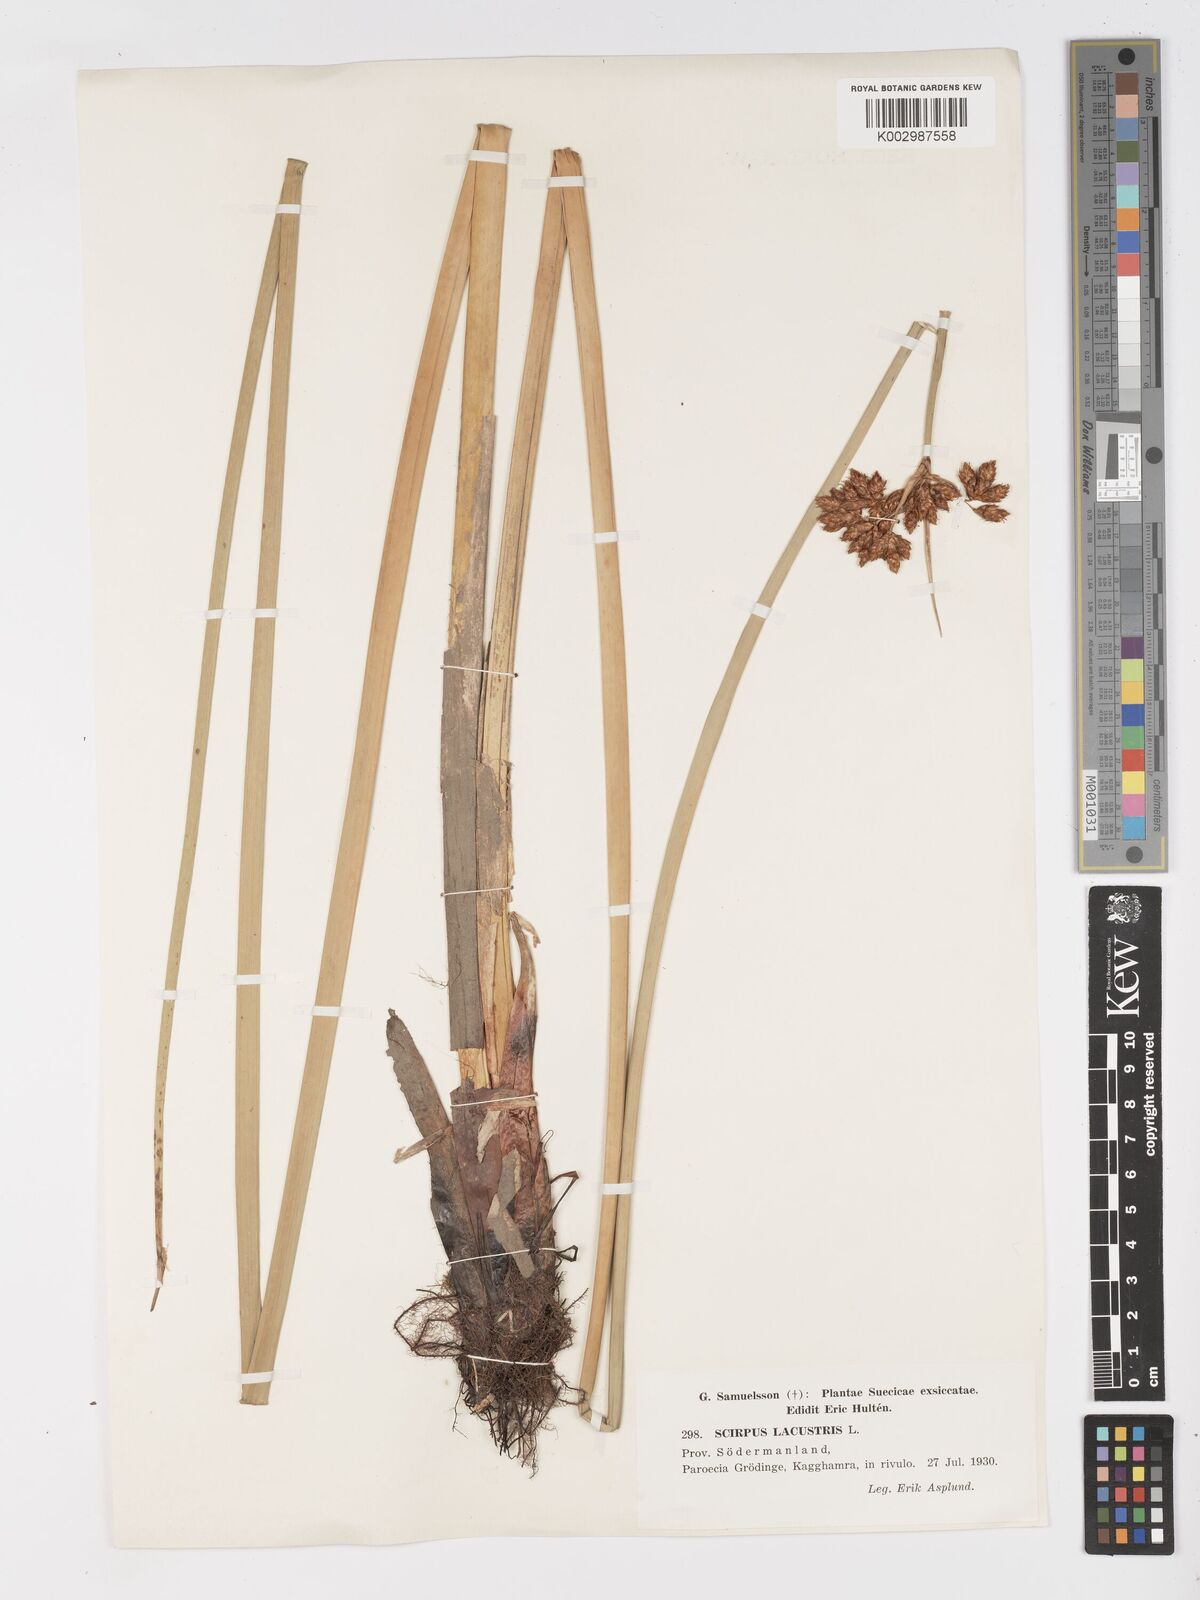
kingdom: Plantae
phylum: Tracheophyta
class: Liliopsida
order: Poales
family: Cyperaceae
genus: Schoenoplectus
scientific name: Schoenoplectus lacustris
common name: Common club-rush
